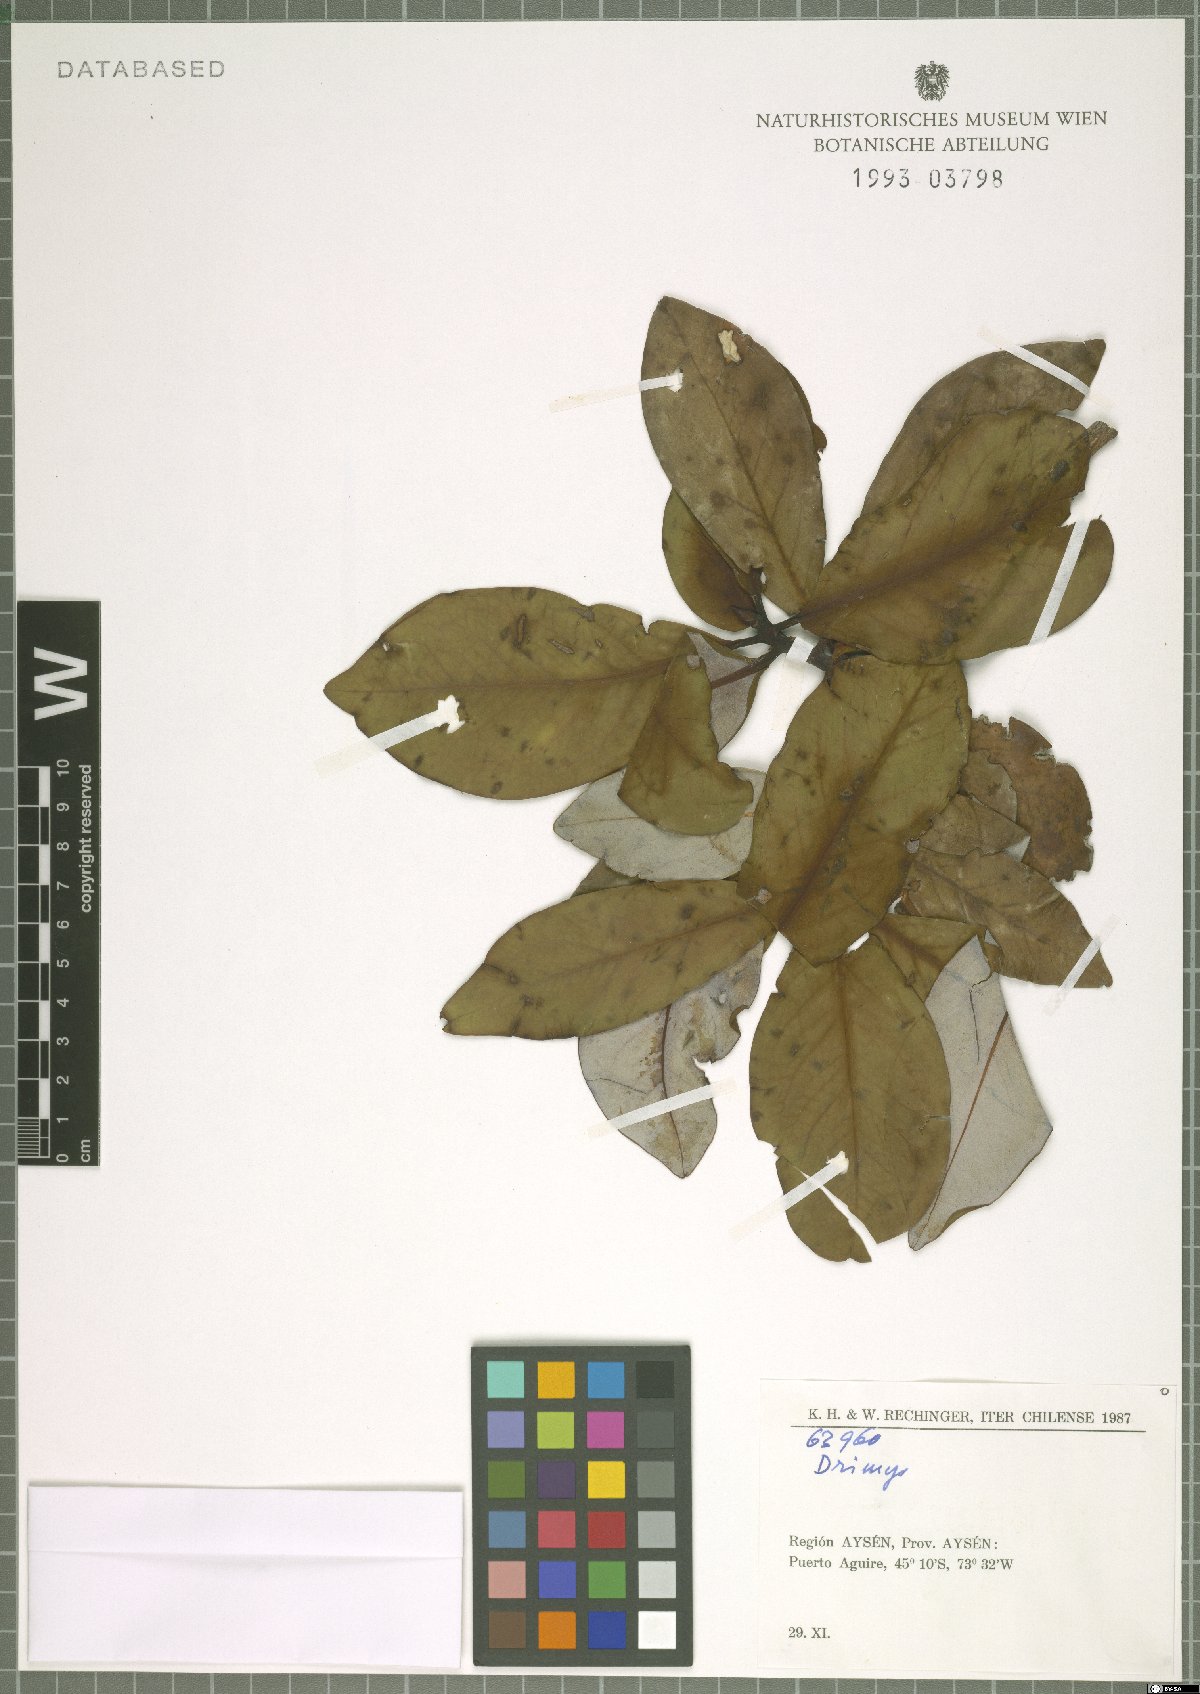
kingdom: Plantae
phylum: Tracheophyta
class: Magnoliopsida
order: Canellales
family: Winteraceae
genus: Drimys
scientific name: Drimys
